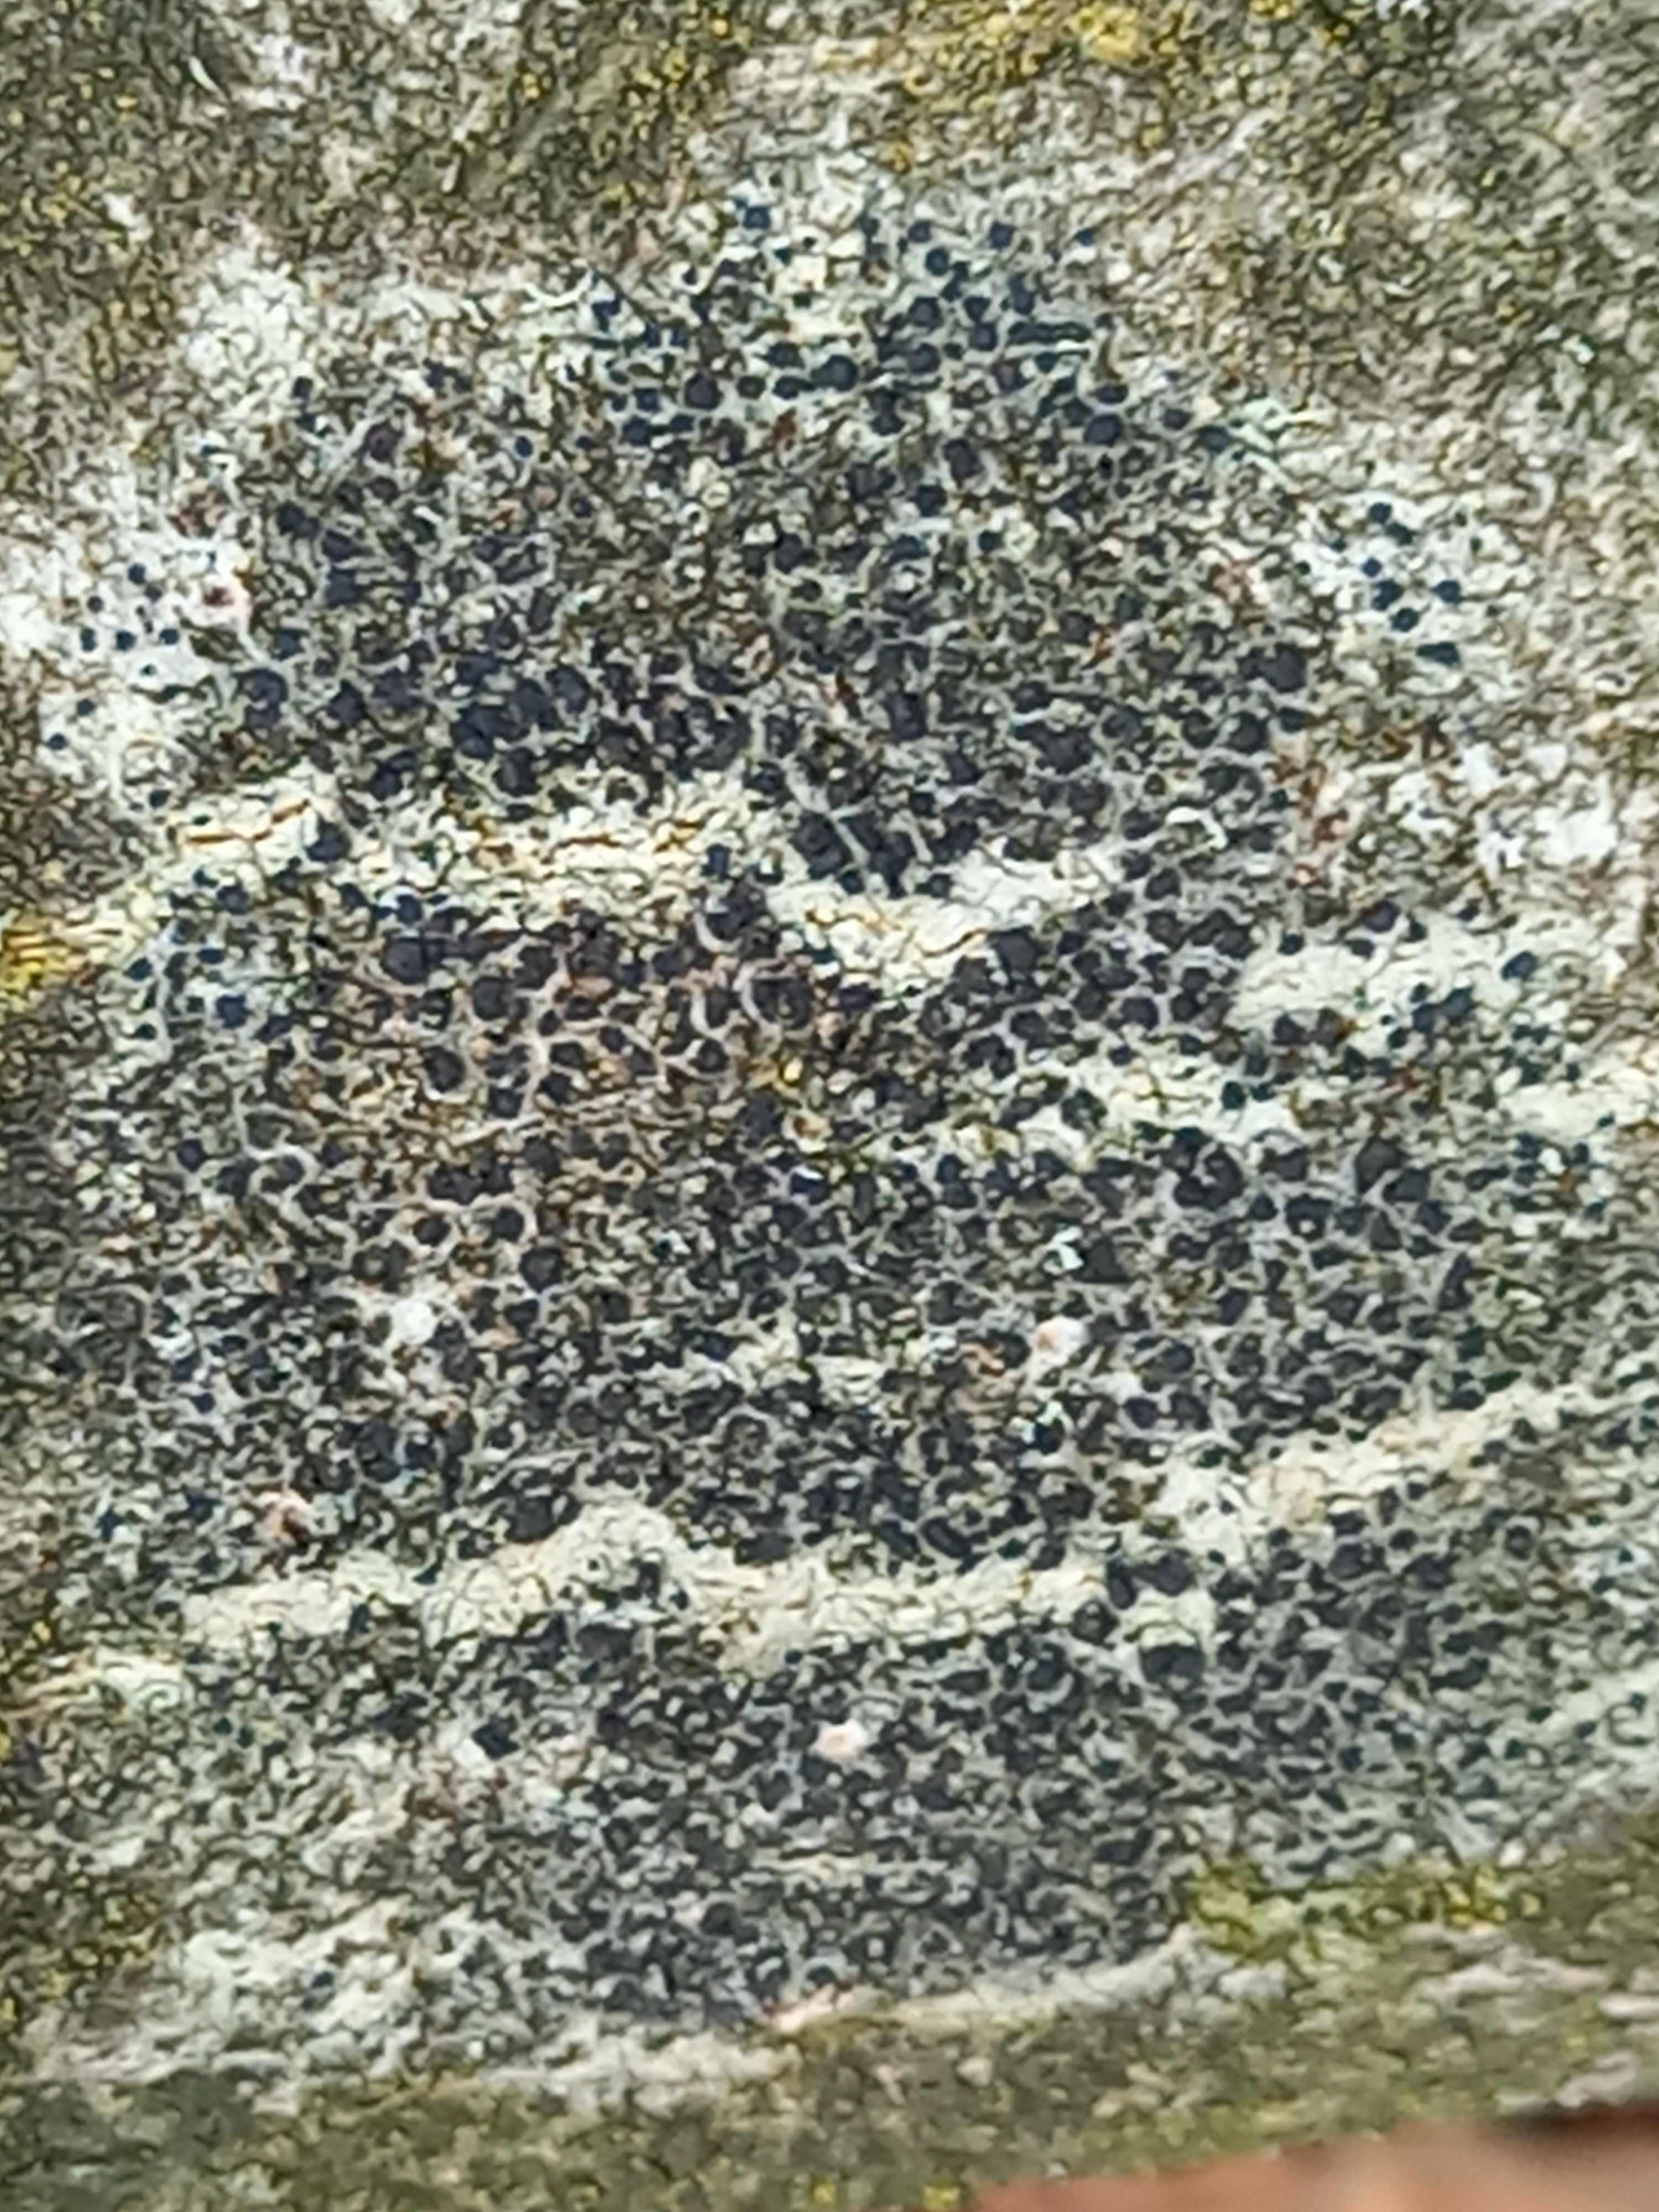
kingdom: Fungi
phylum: Ascomycota
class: Lecanoromycetes
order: Lecanorales
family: Lecanoraceae
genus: Lecidella
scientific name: Lecidella elaeochroma
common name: grågrøn skivelav
